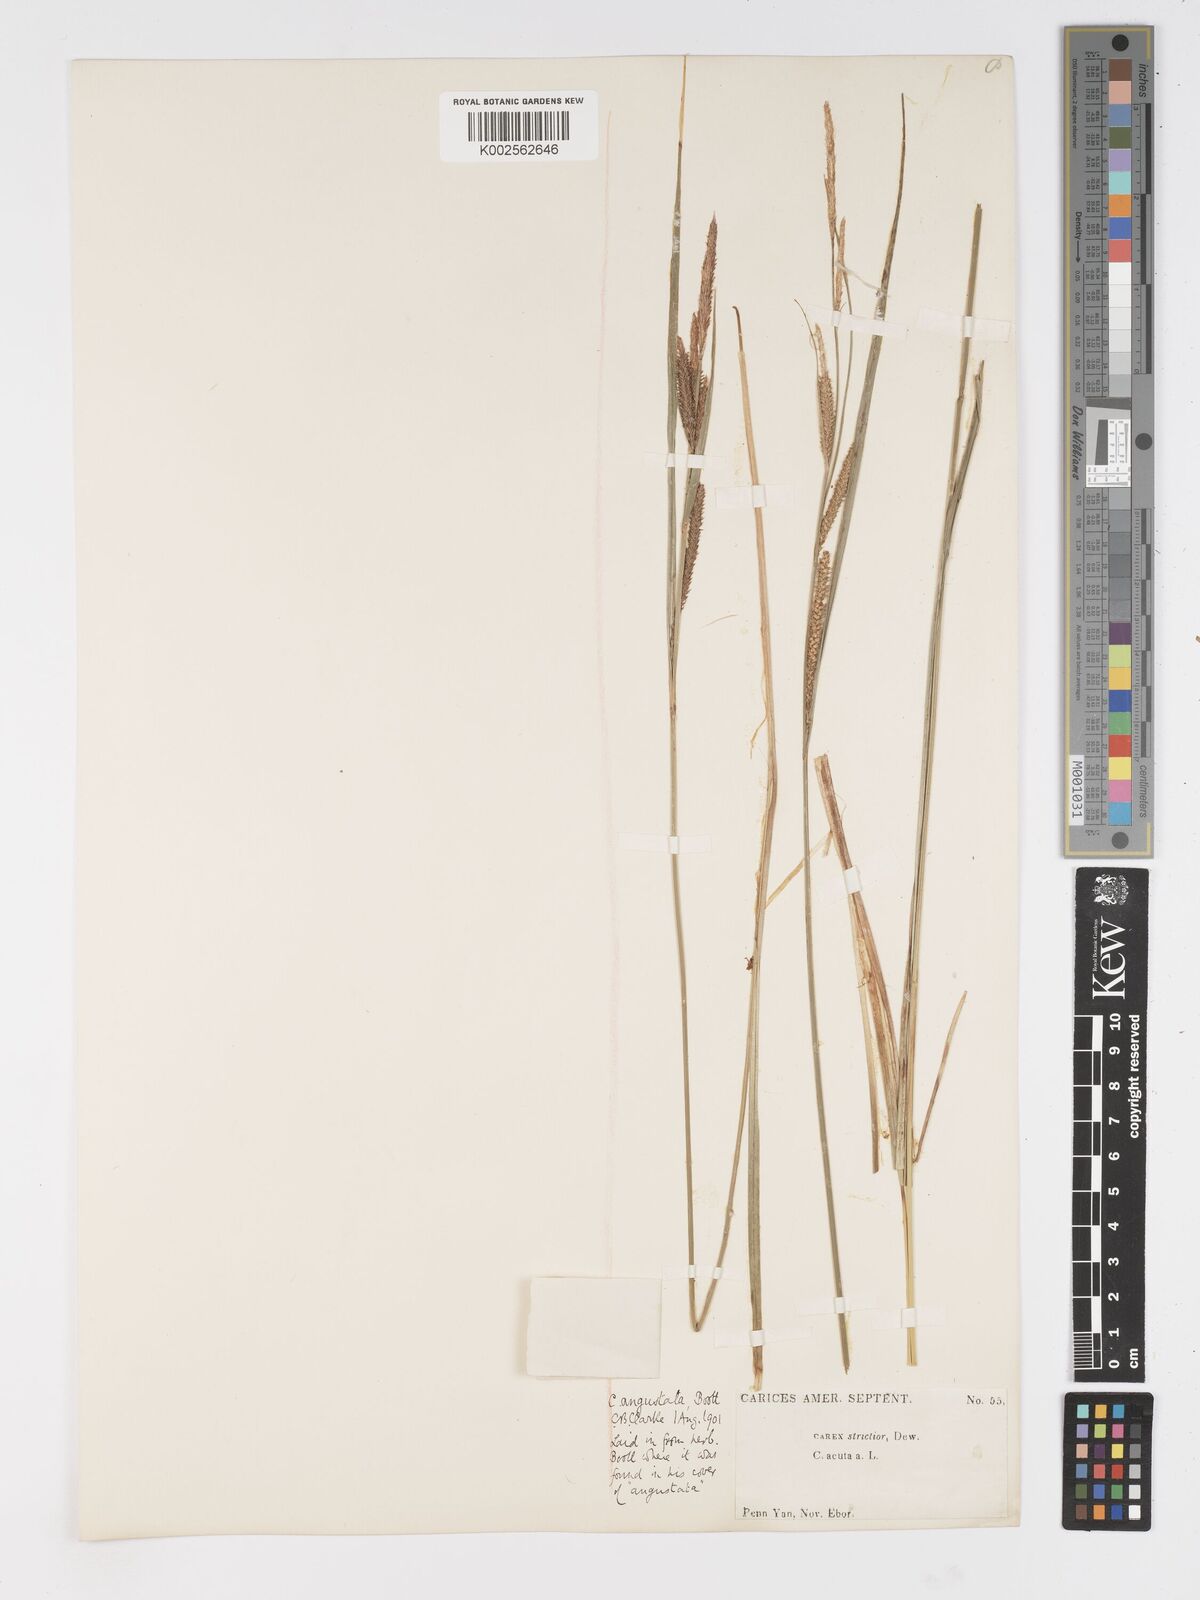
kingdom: Plantae
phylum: Tracheophyta
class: Liliopsida
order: Poales
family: Cyperaceae
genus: Carex
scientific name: Carex stricta
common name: Hummock sedge
